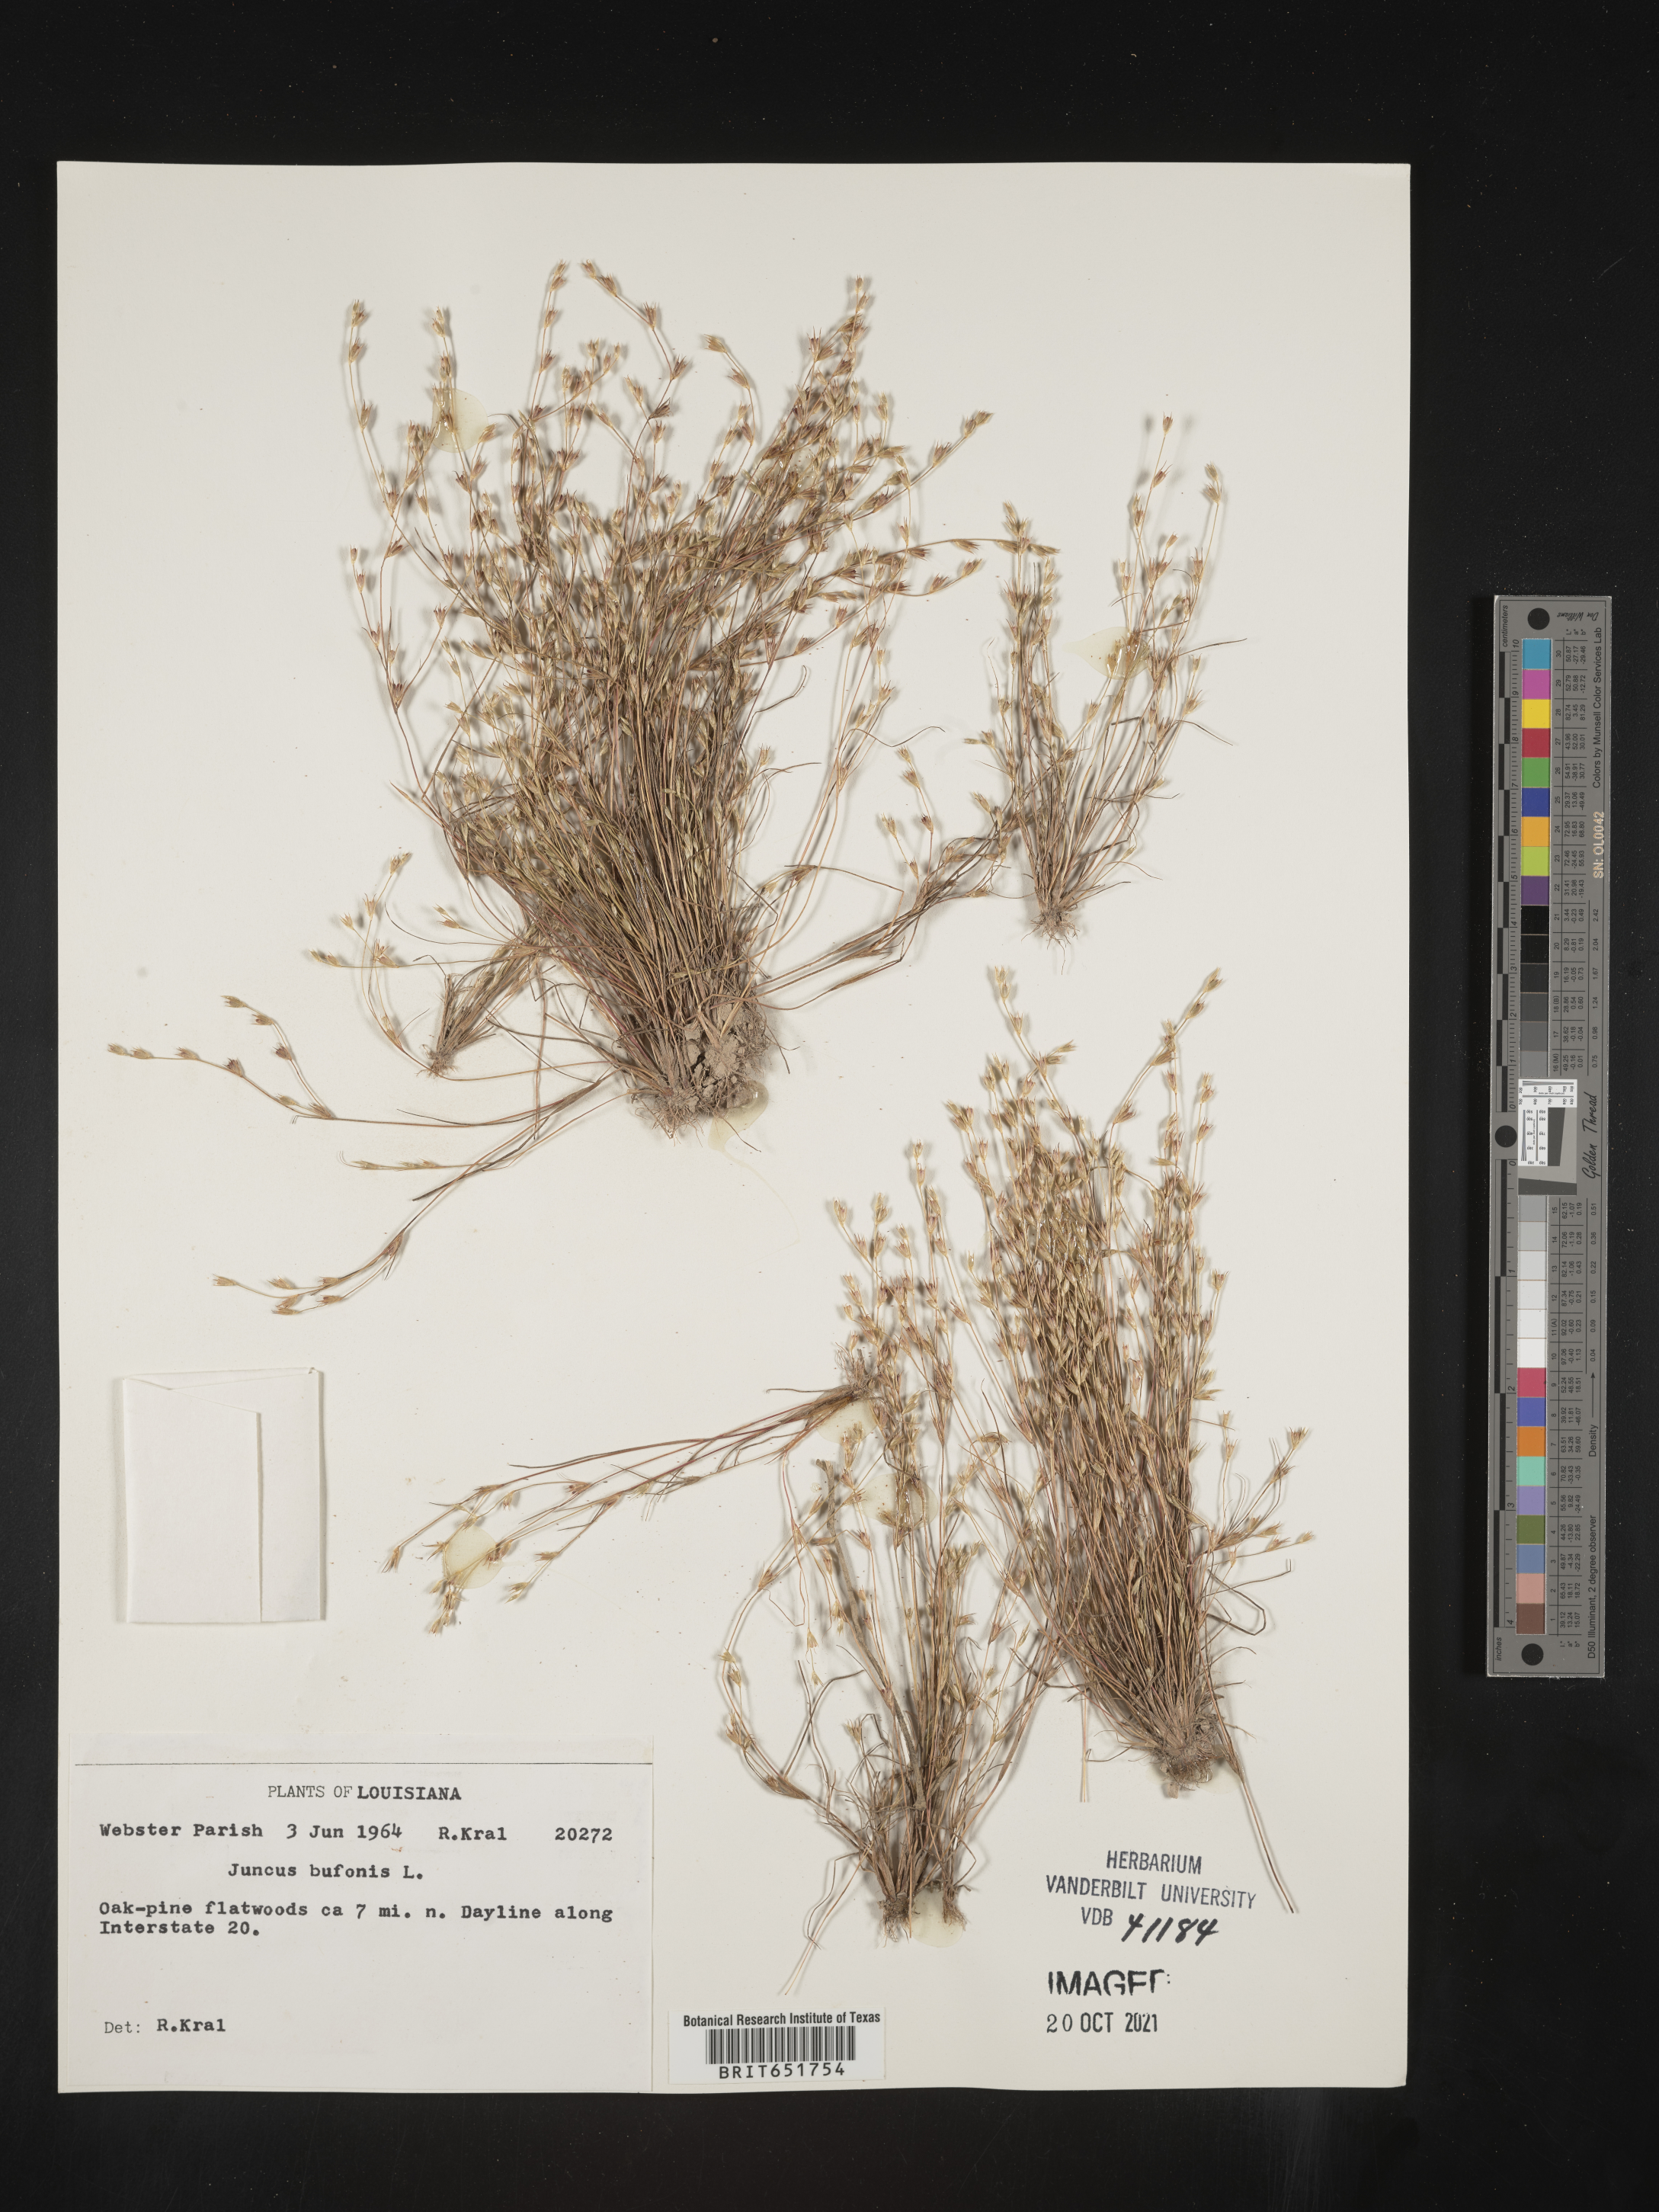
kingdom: Plantae
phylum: Tracheophyta
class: Liliopsida
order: Poales
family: Juncaceae
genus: Juncus
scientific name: Juncus bufonius
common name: Toad rush
